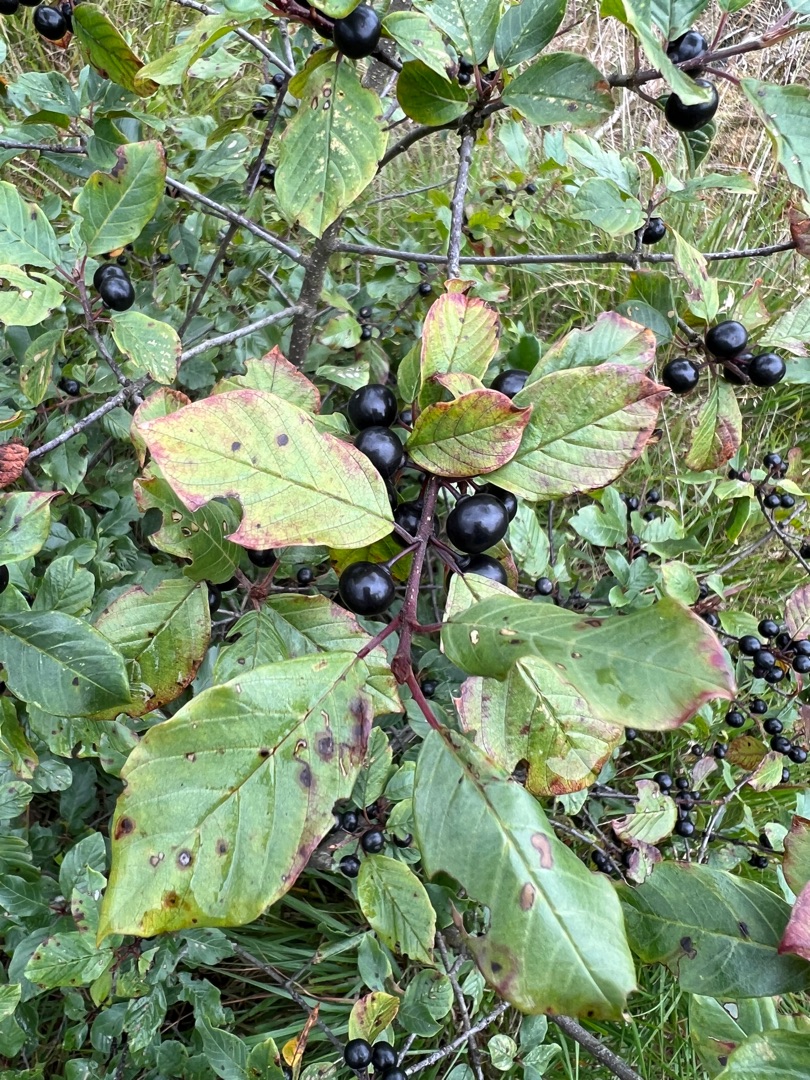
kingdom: Plantae
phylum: Tracheophyta
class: Magnoliopsida
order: Rosales
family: Rhamnaceae
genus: Frangula
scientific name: Frangula alnus
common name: Tørst
